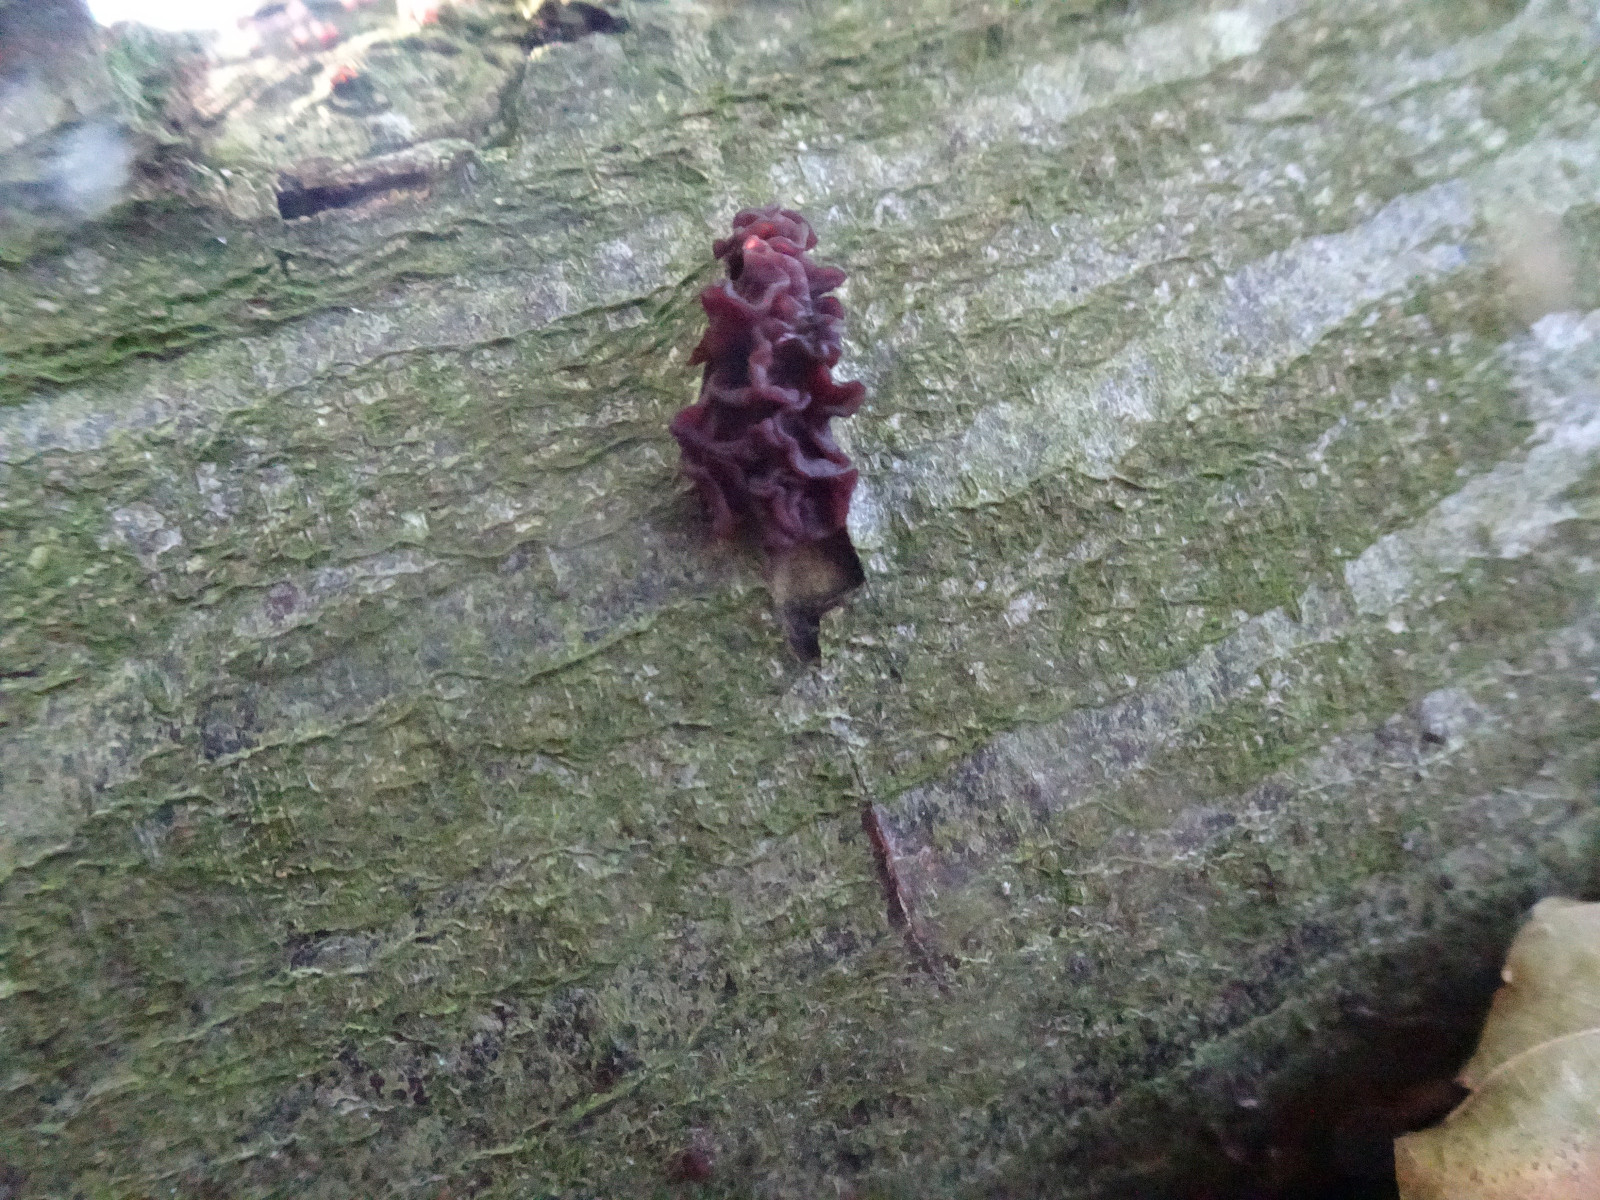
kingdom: Fungi
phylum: Ascomycota
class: Leotiomycetes
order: Helotiales
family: Gelatinodiscaceae
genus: Ascocoryne
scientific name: Ascocoryne sarcoides
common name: rødlilla sejskive
